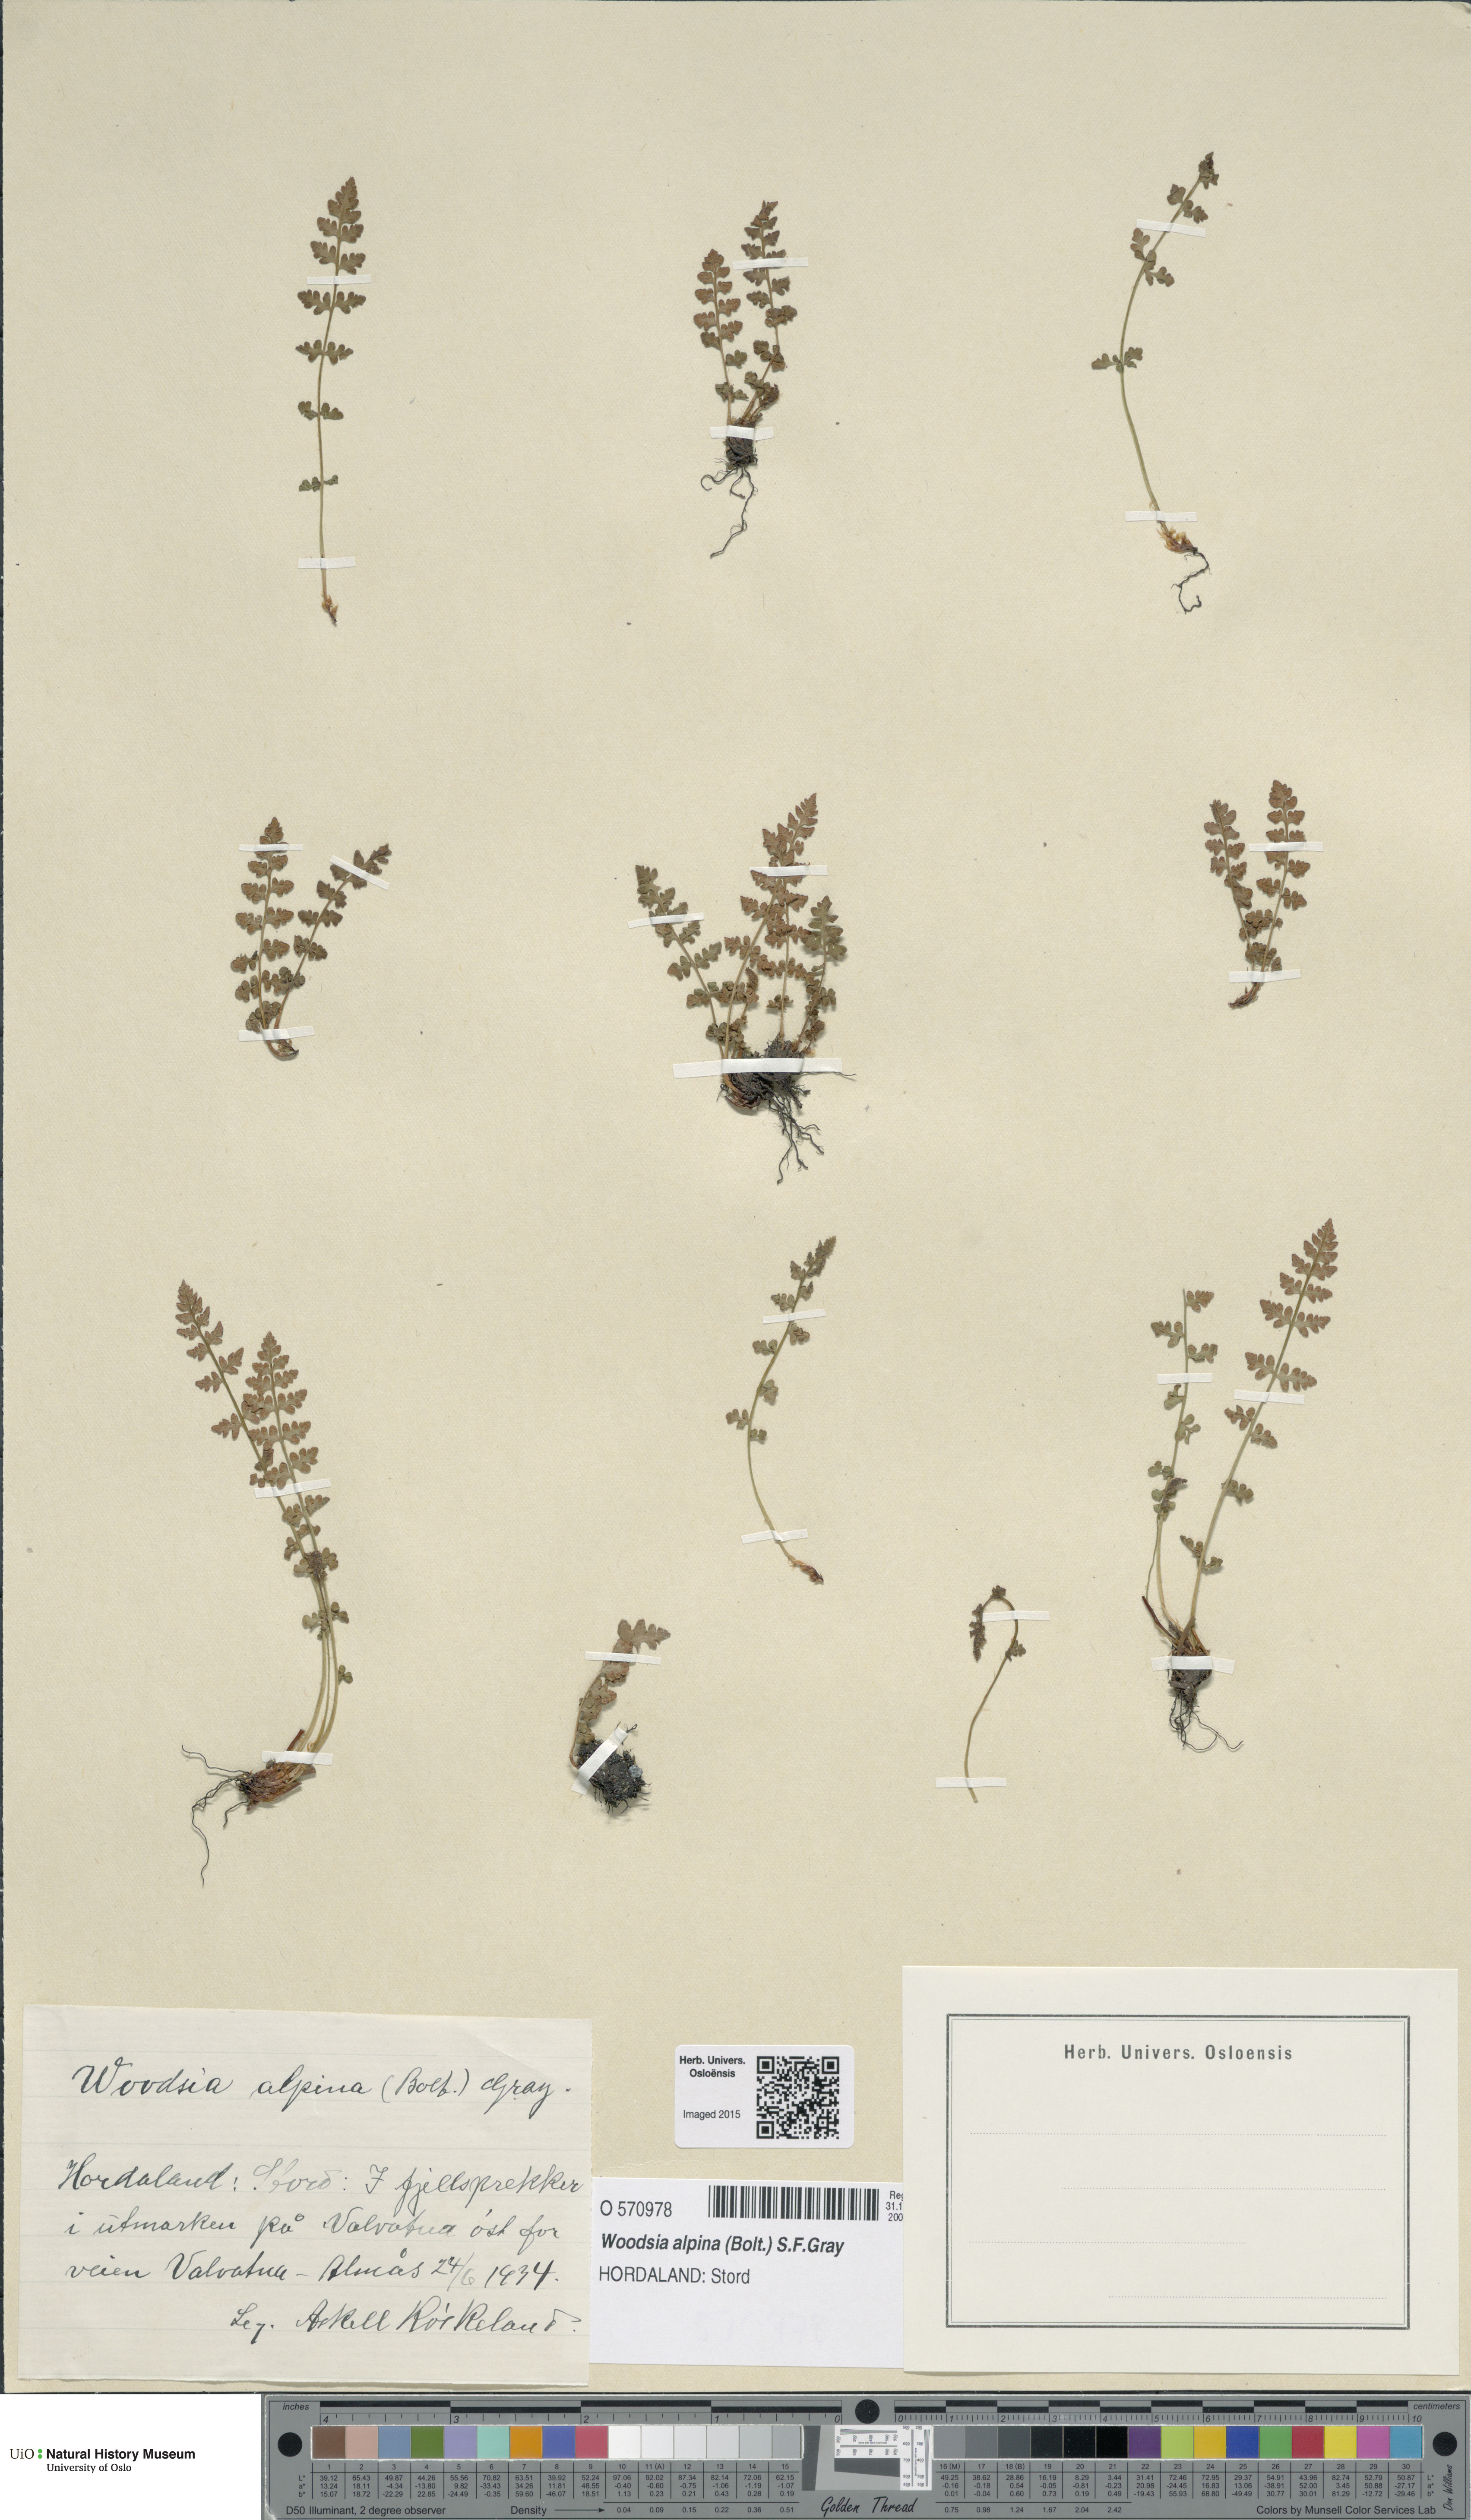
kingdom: Plantae
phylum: Tracheophyta
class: Polypodiopsida
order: Polypodiales
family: Woodsiaceae
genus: Woodsia
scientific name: Woodsia alpina
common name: Alpine woodsia
